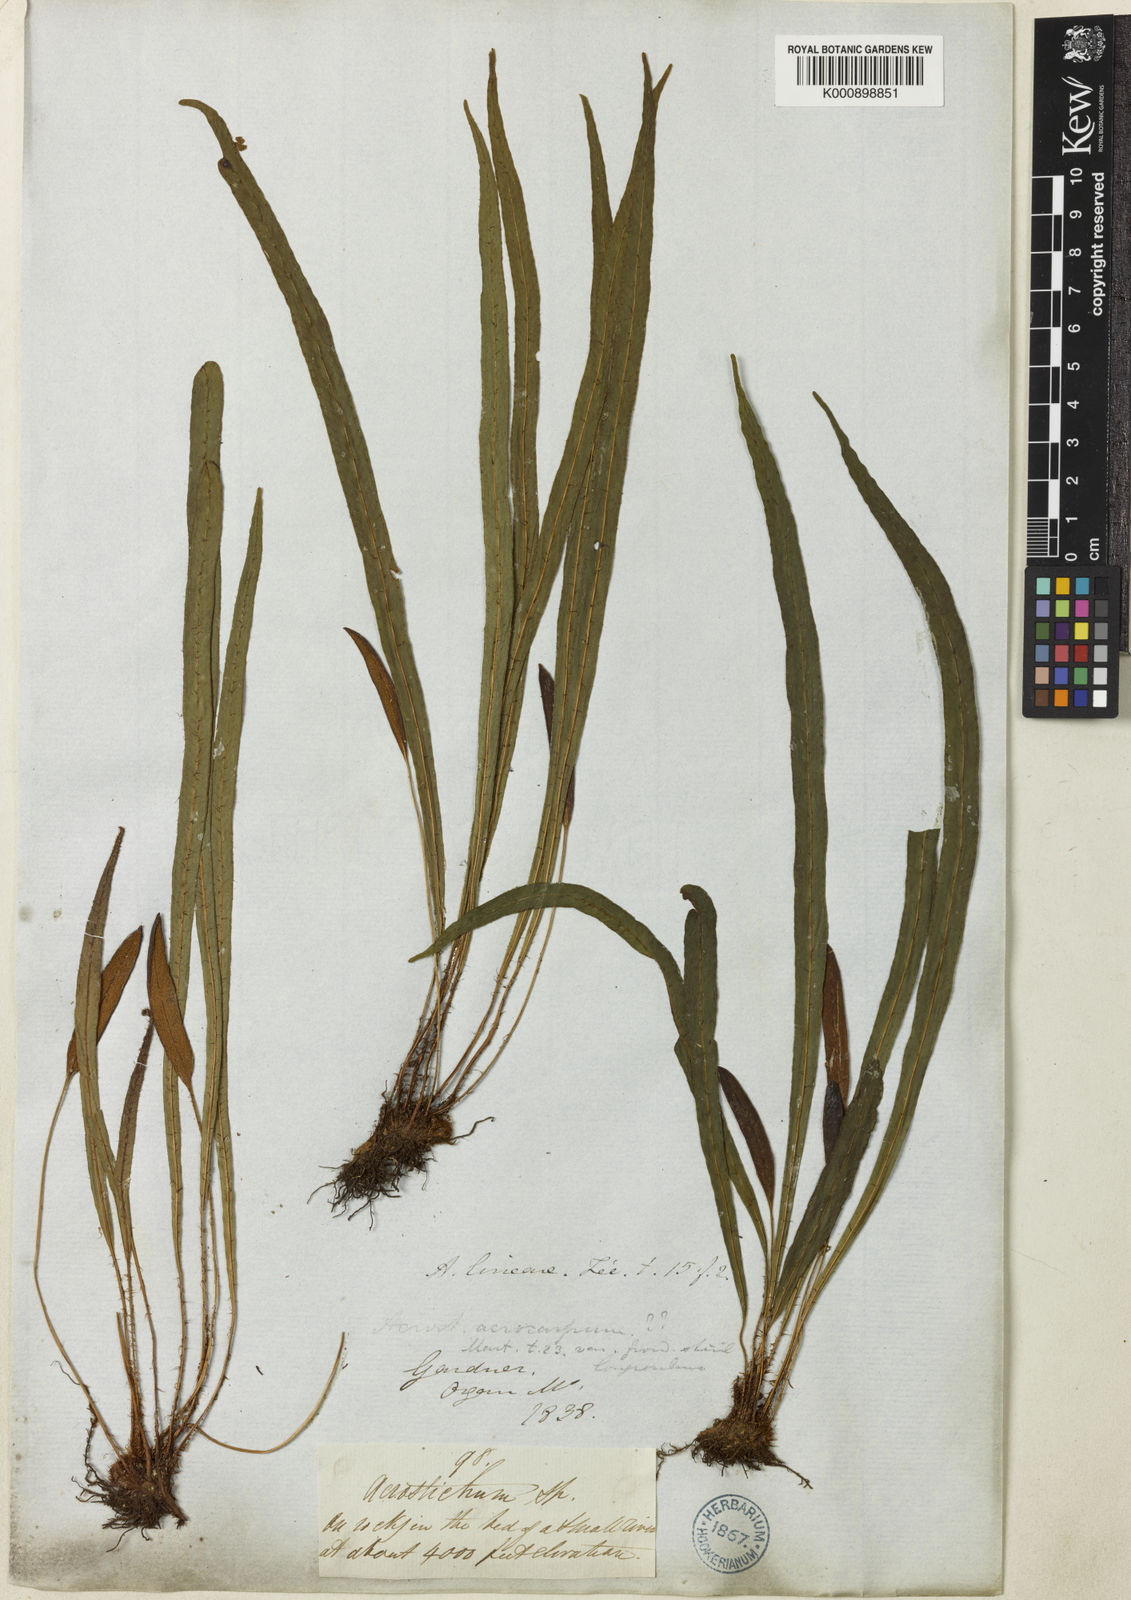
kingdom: Plantae
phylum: Tracheophyta
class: Polypodiopsida
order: Polypodiales
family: Dryopteridaceae
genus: Elaphoglossum
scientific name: Elaphoglossum
